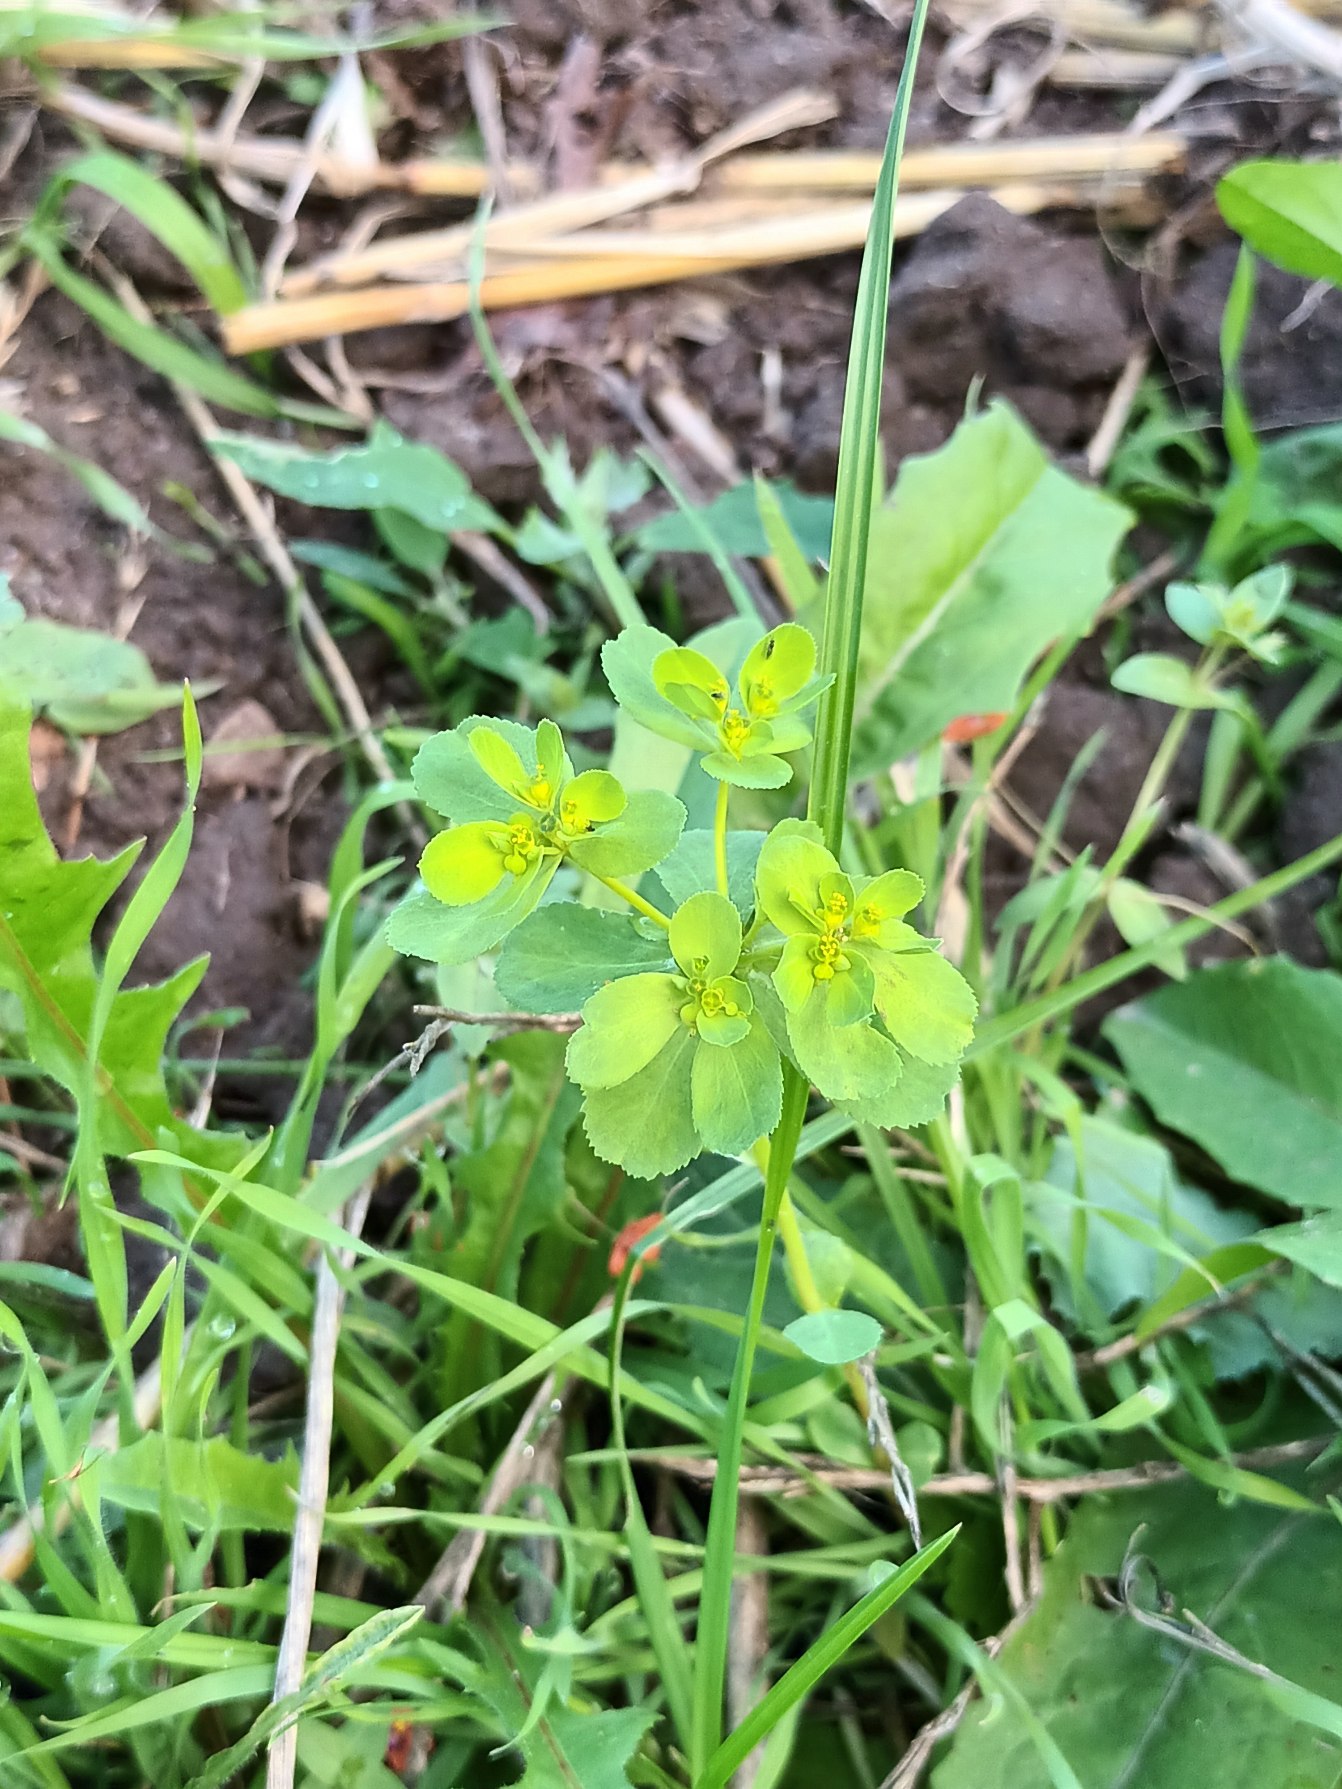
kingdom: Plantae
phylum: Tracheophyta
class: Magnoliopsida
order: Malpighiales
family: Euphorbiaceae
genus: Euphorbia
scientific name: Euphorbia helioscopia
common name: Skærm-vortemælk
